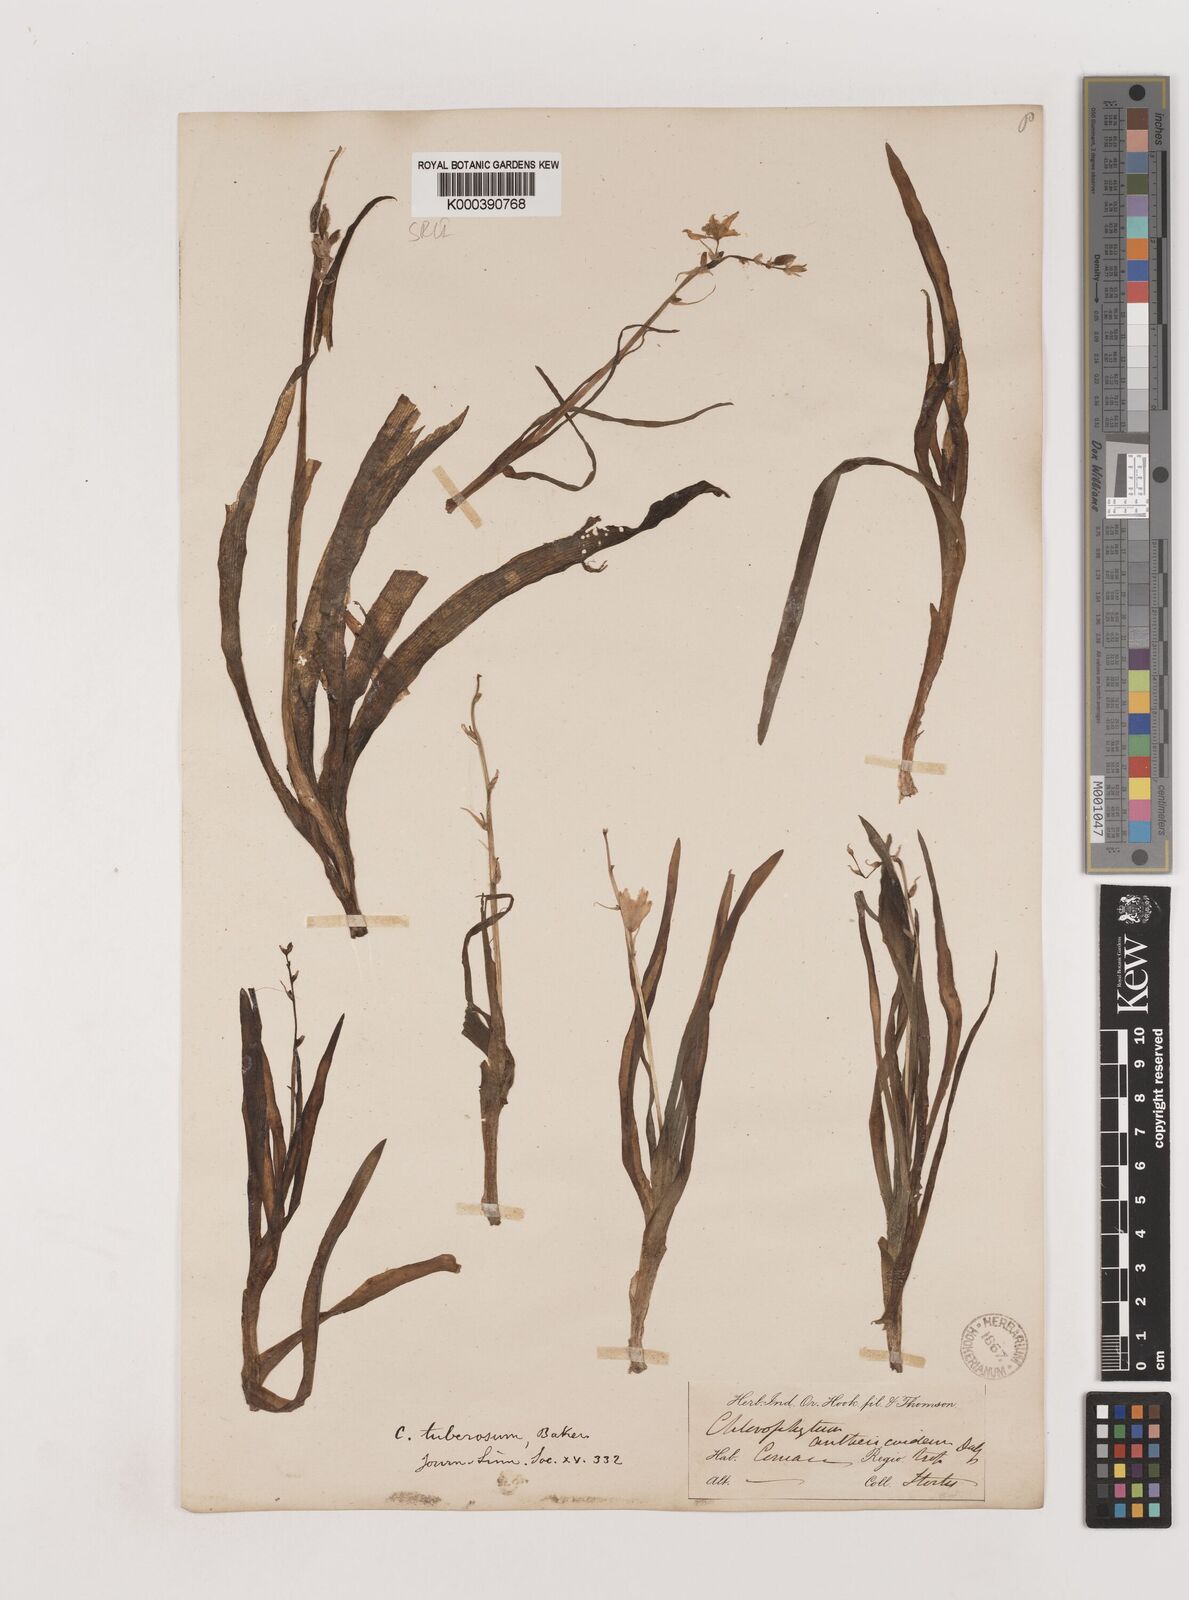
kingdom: Plantae
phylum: Tracheophyta
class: Liliopsida
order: Asparagales
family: Asparagaceae
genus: Chlorophytum
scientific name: Chlorophytum tuberosum
